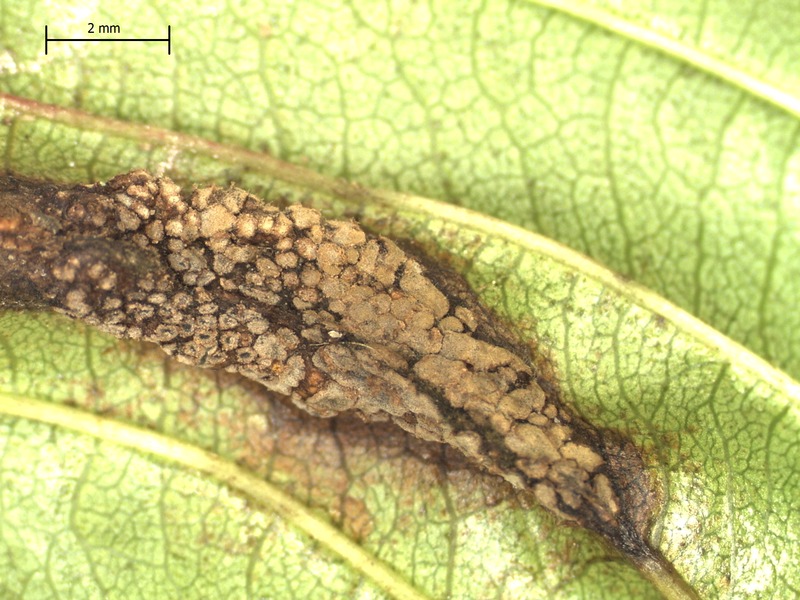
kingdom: Fungi
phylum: Basidiomycota
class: Pucciniomycetes
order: Helicobasidiales
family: Helicobasidiaceae
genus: Helicobasidium
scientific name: Helicobasidium purpureum
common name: Violet root rot
